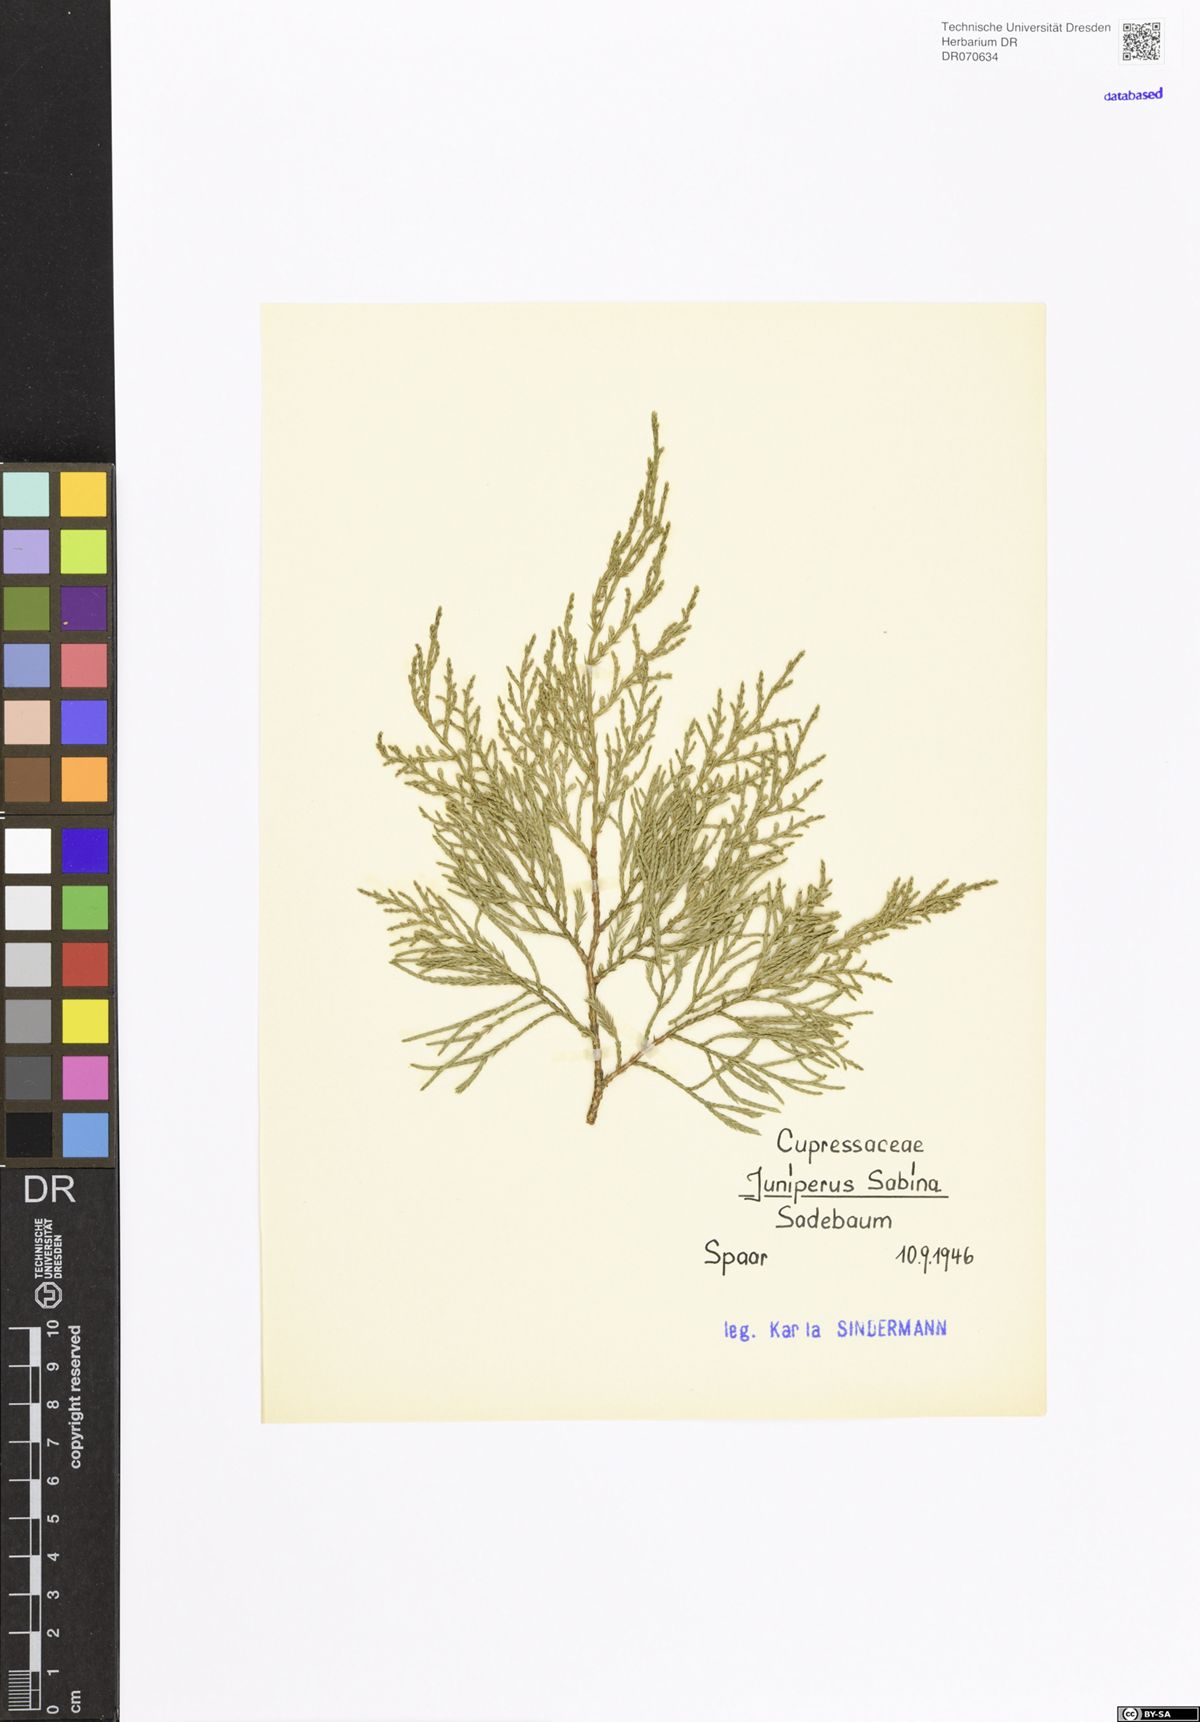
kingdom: Plantae
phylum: Tracheophyta
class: Pinopsida
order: Pinales
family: Cupressaceae
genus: Juniperus
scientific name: Juniperus sabina
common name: Savin
